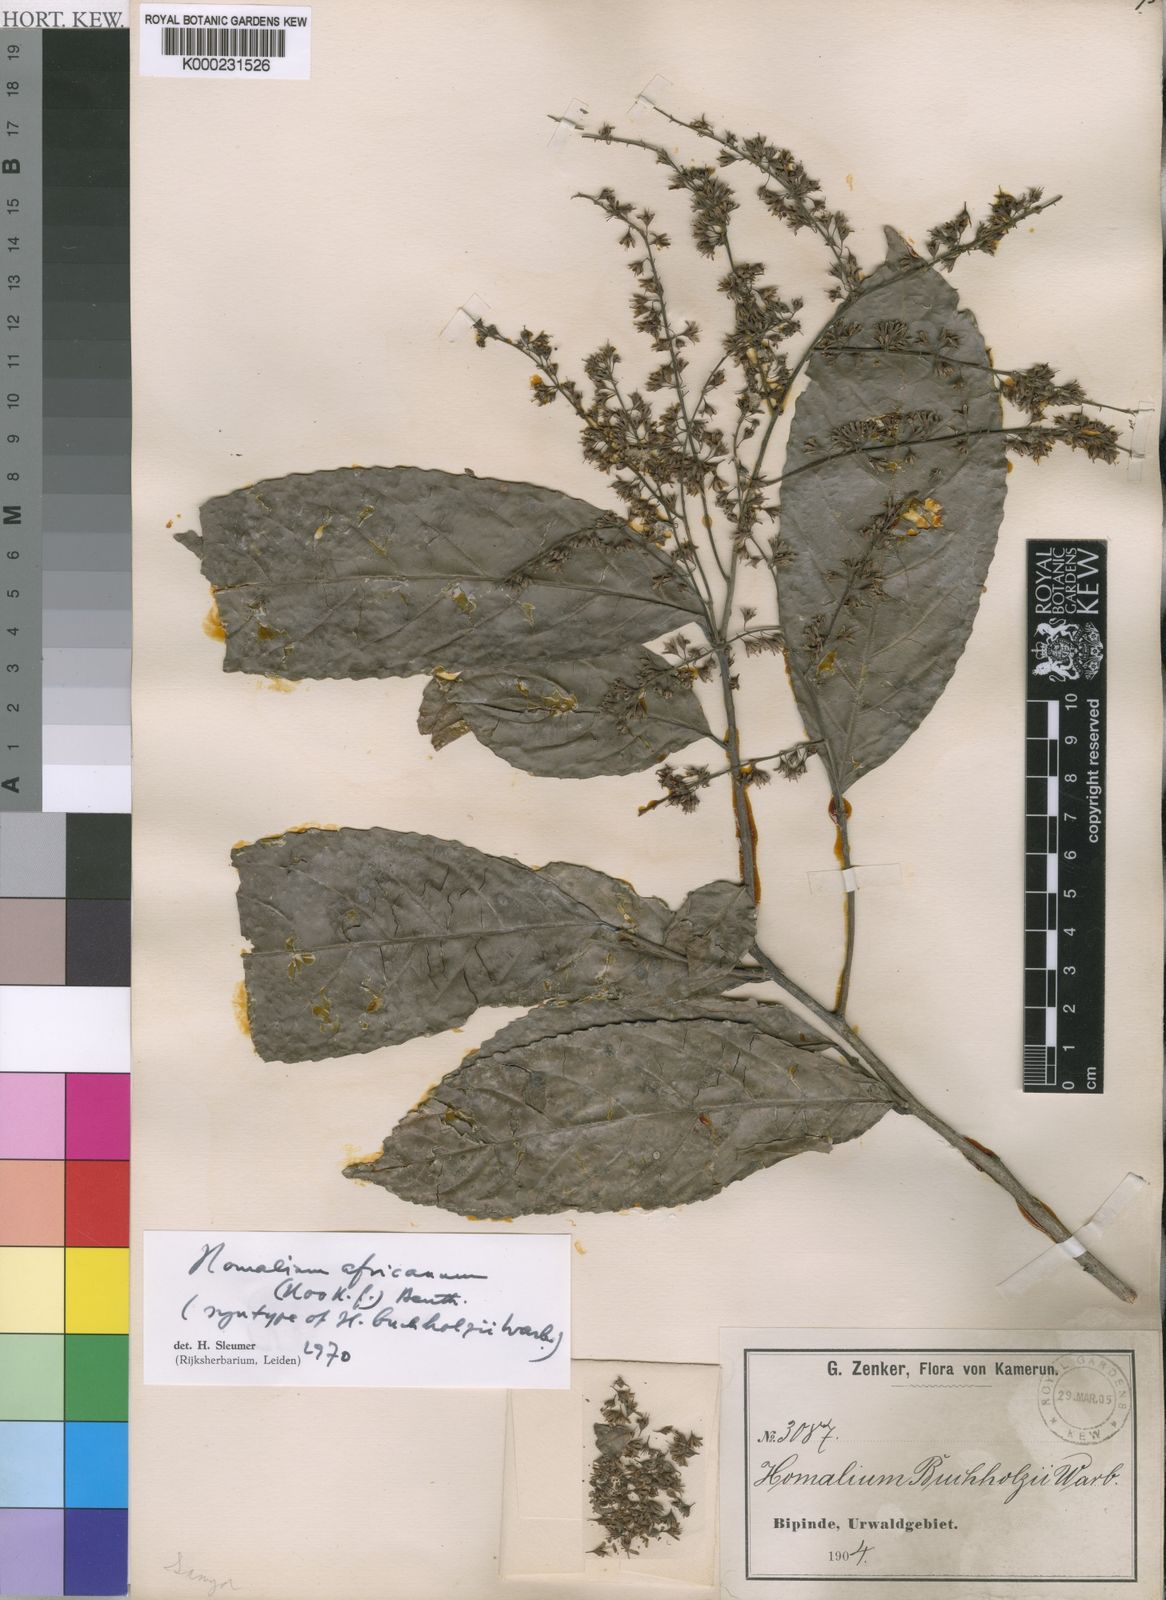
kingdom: Plantae
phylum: Tracheophyta
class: Magnoliopsida
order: Malpighiales
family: Salicaceae
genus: Homalium
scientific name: Homalium africanum
